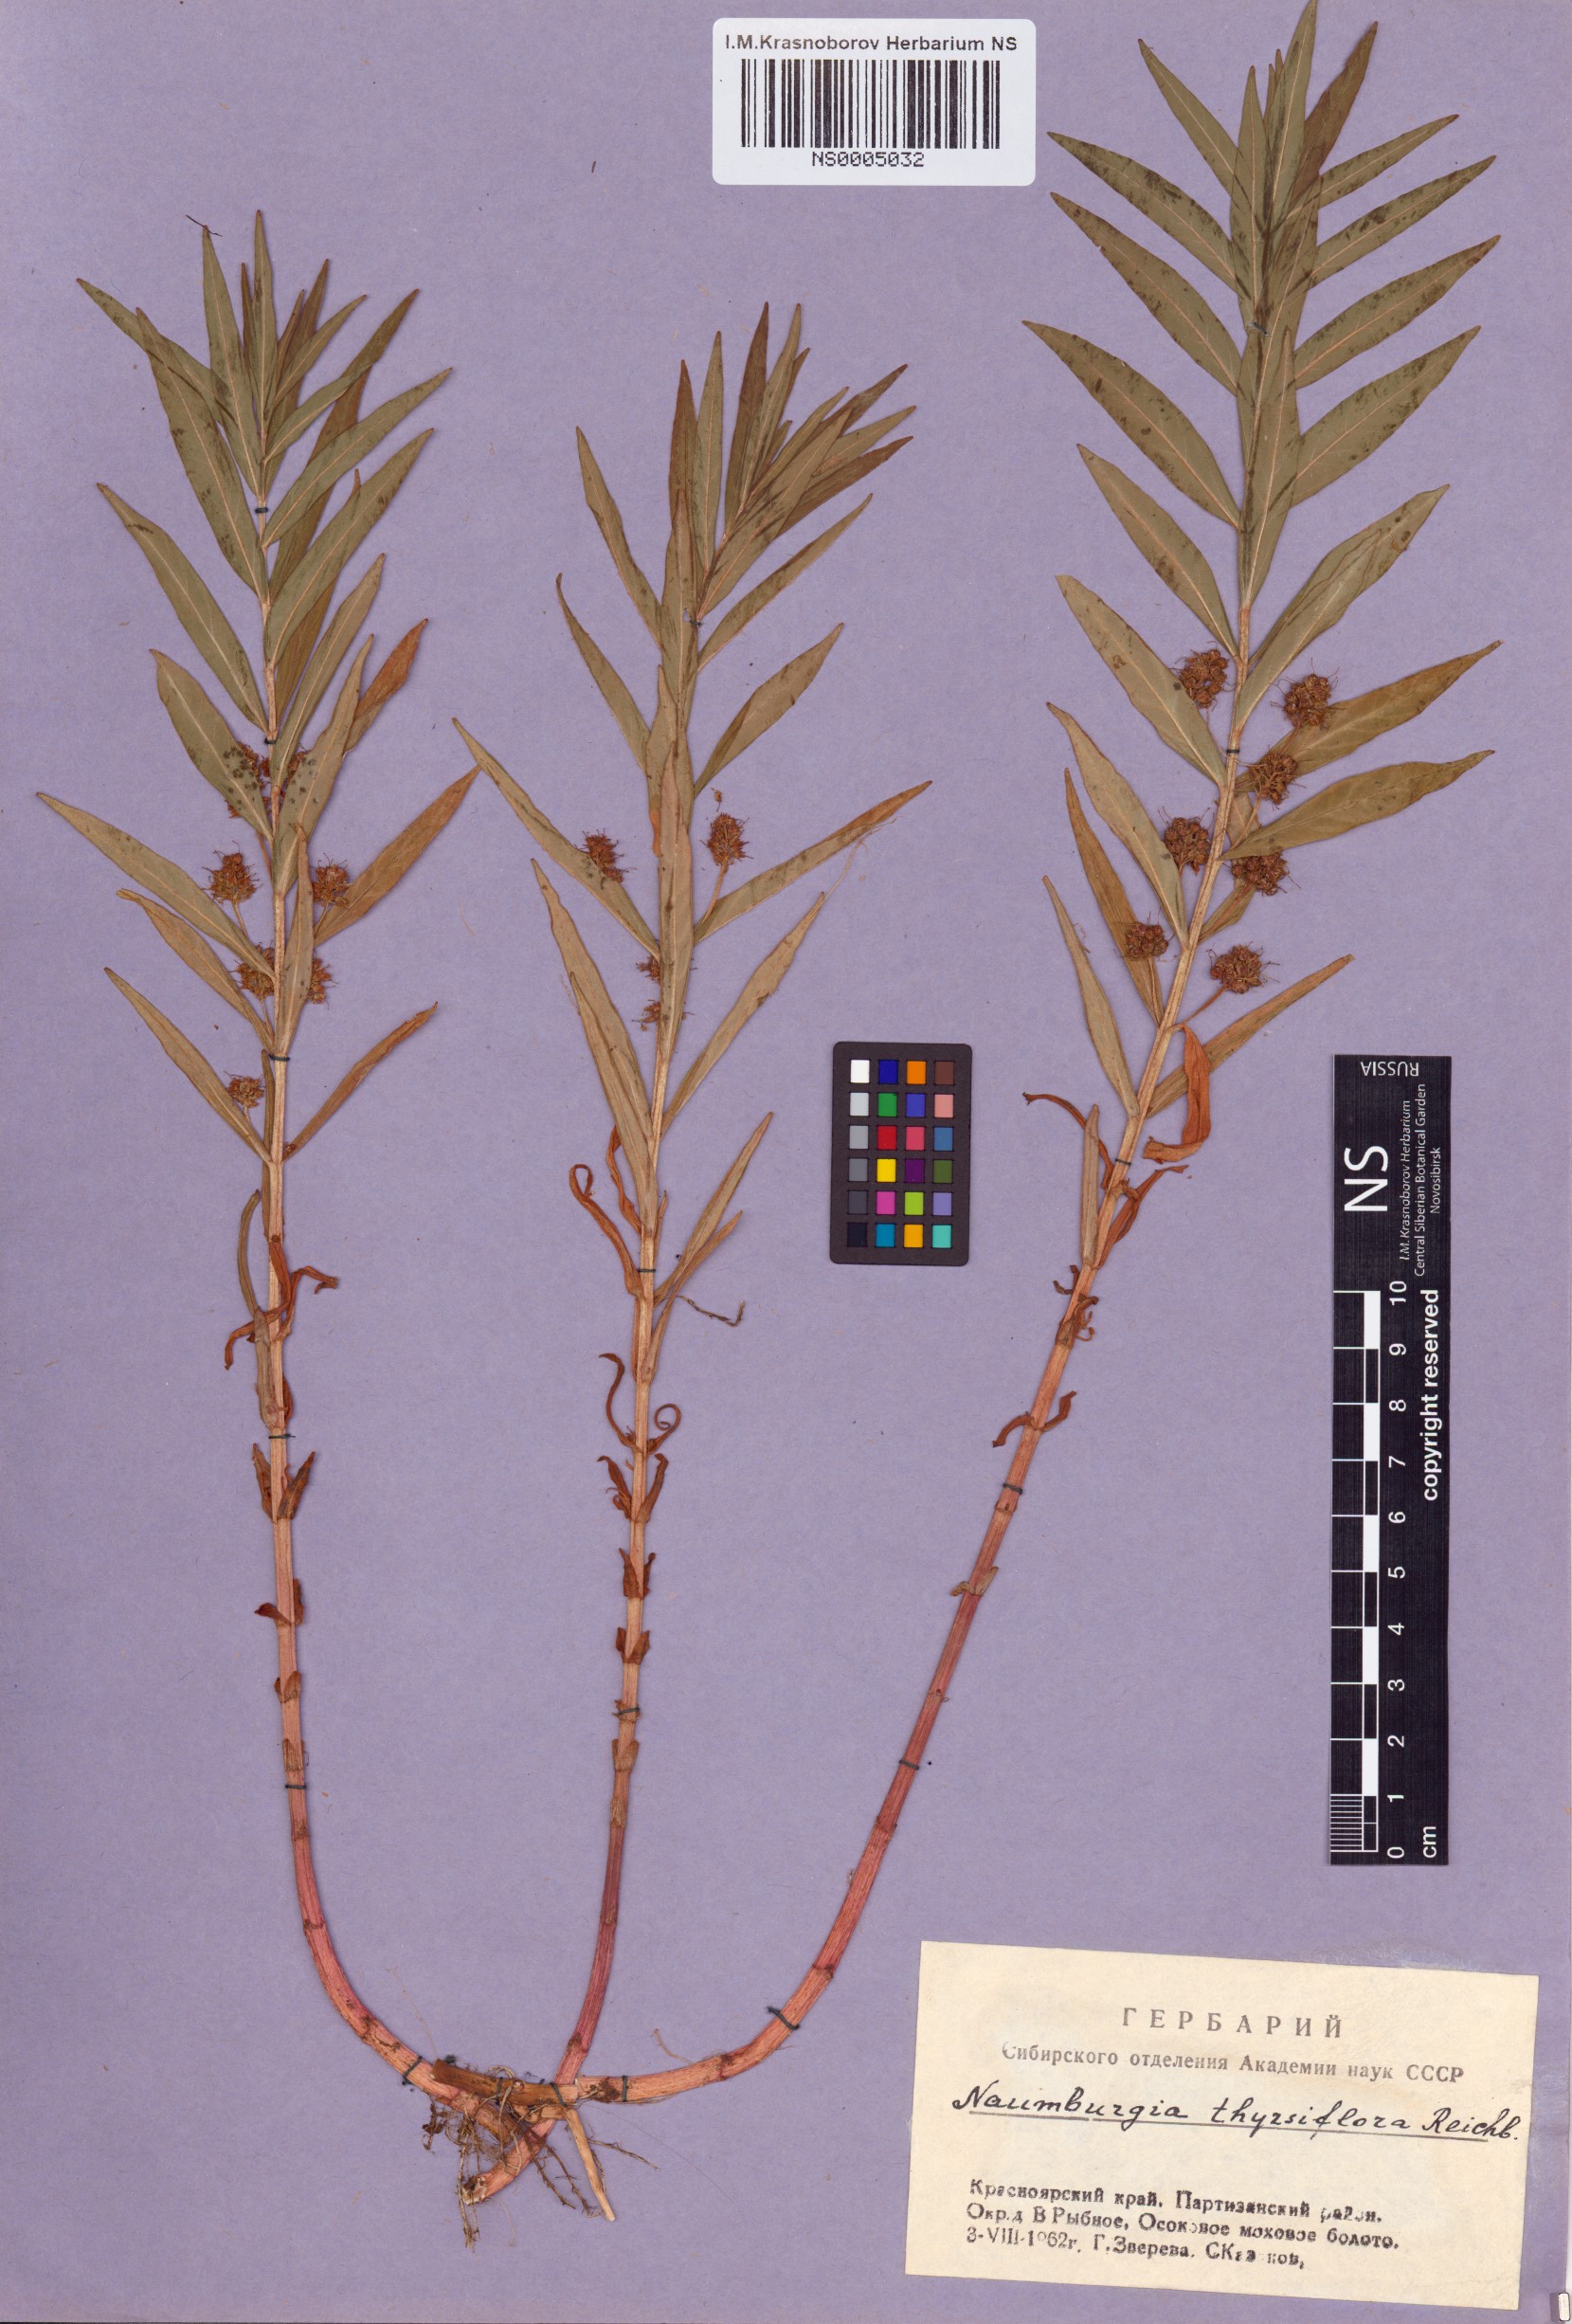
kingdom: Plantae
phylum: Tracheophyta
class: Magnoliopsida
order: Ericales
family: Primulaceae
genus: Lysimachia
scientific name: Lysimachia thyrsiflora
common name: Tufted loosestrife
